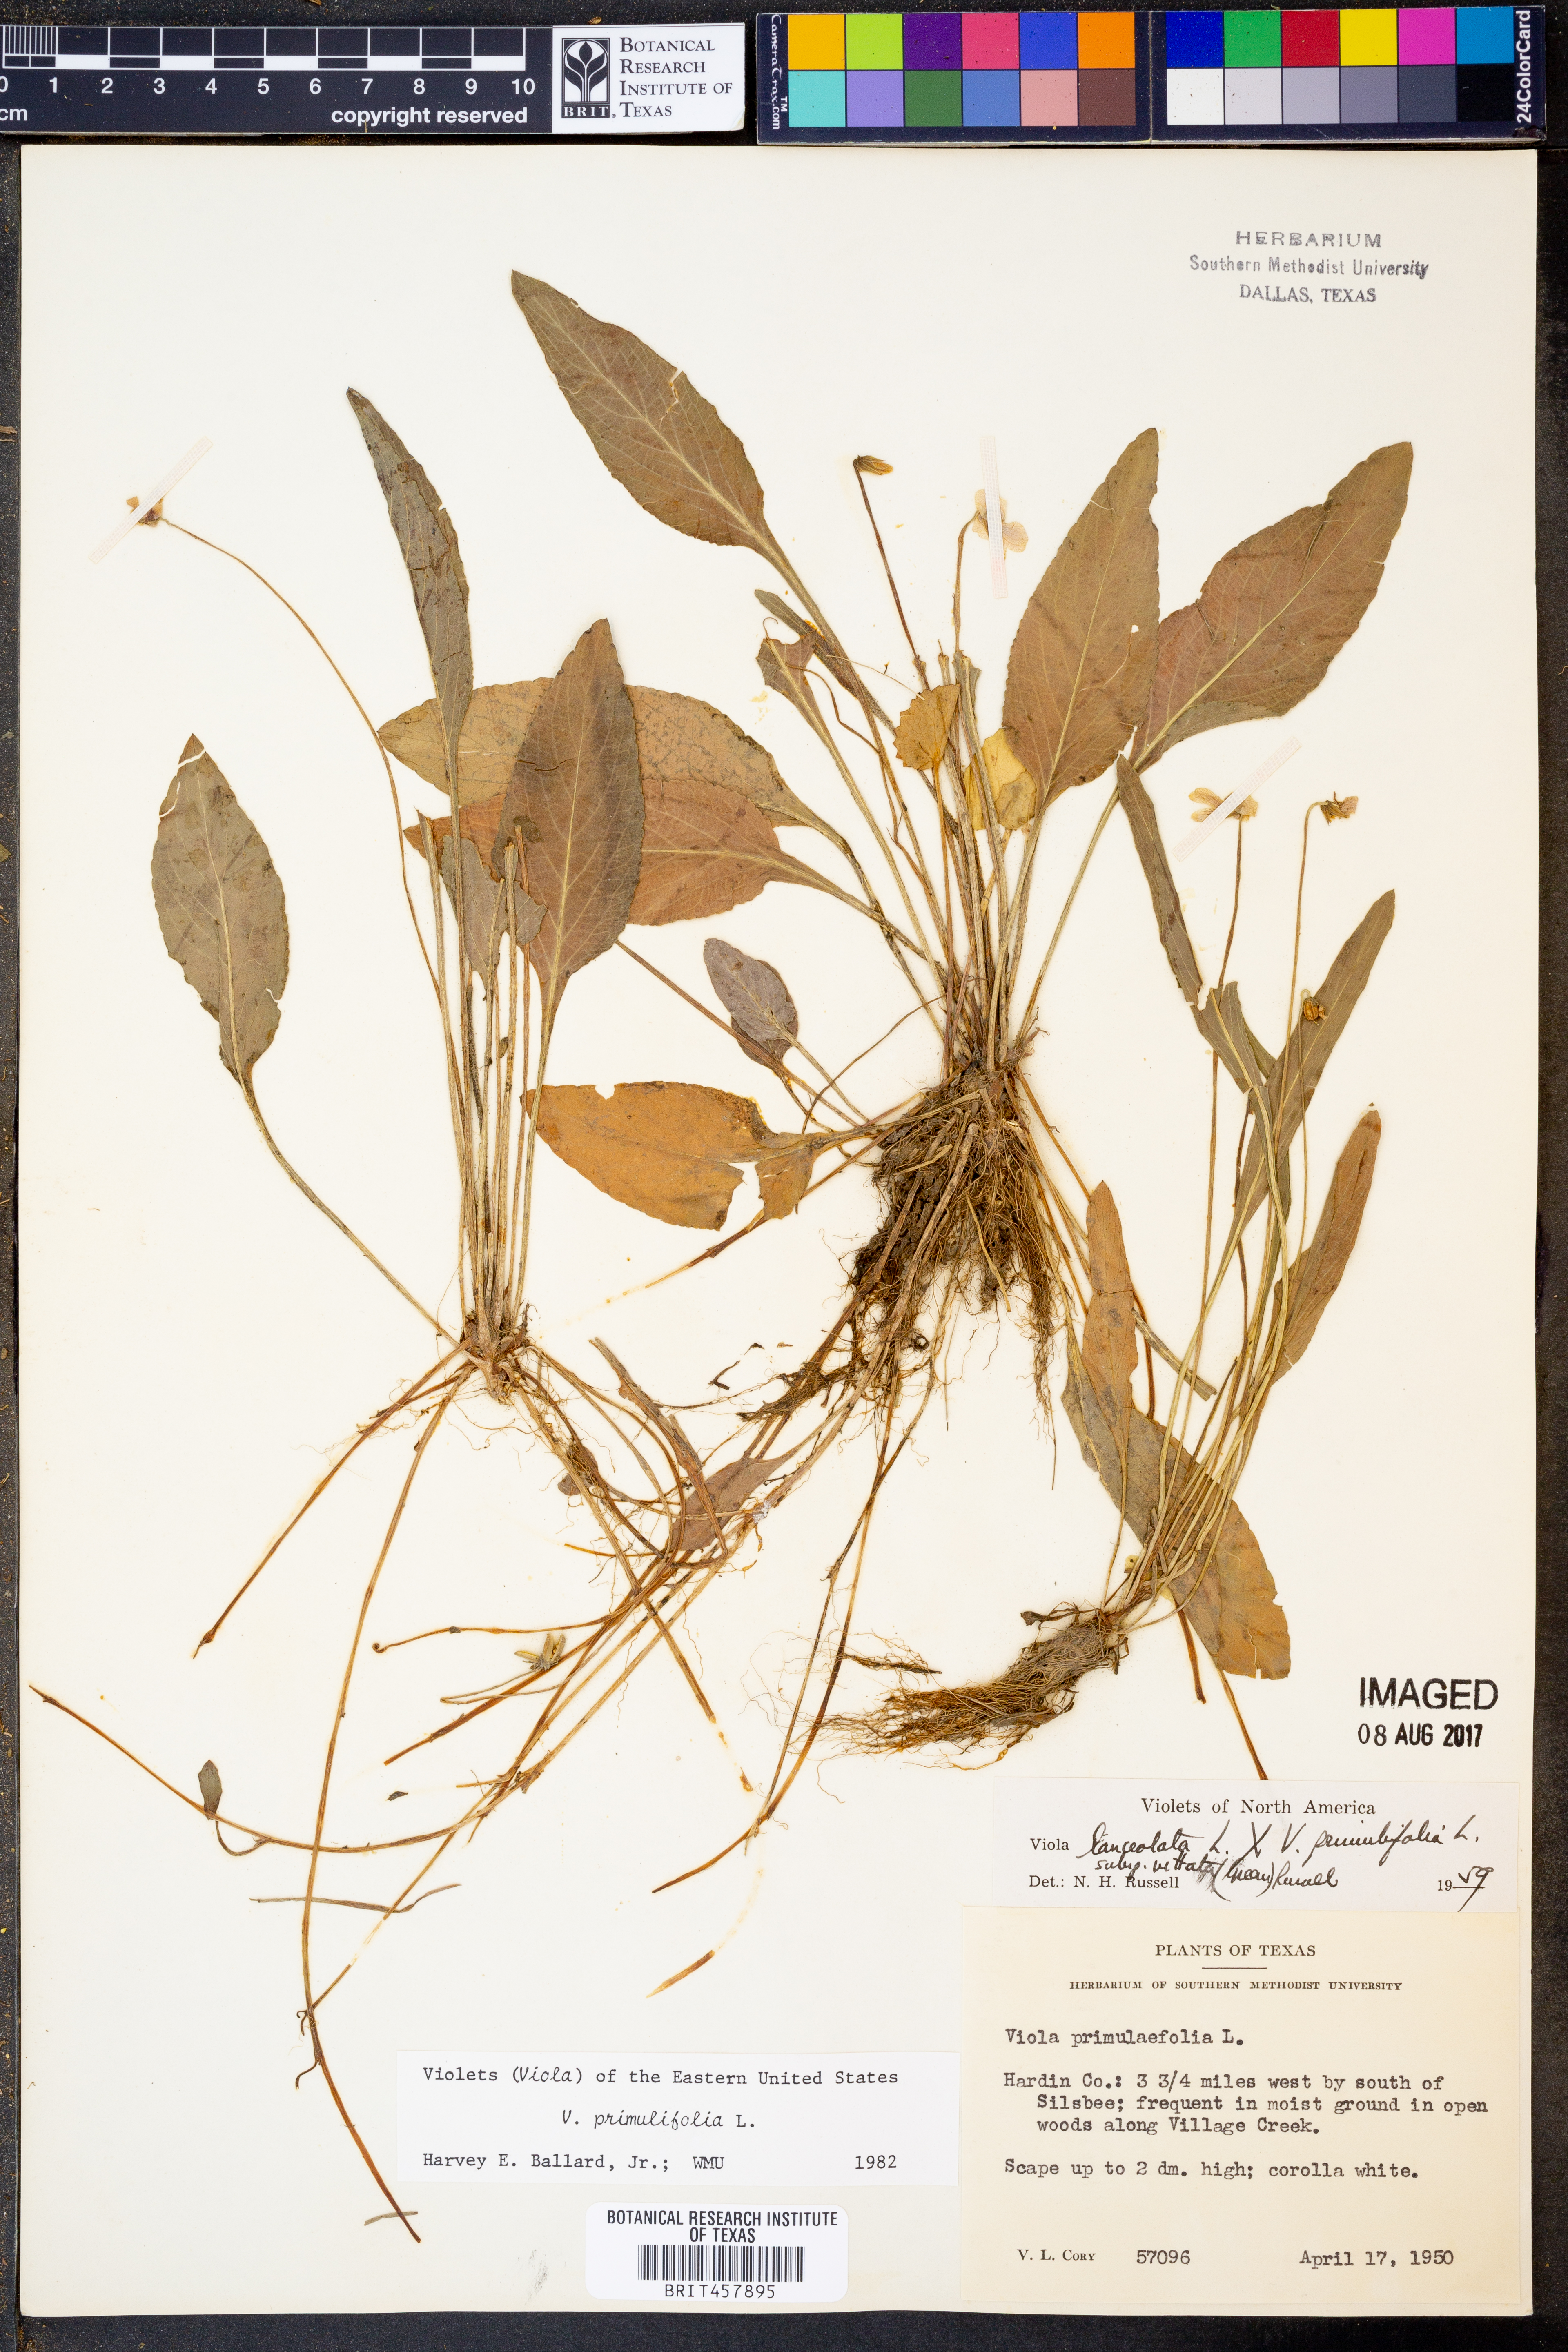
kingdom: Plantae
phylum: Tracheophyta
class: Magnoliopsida
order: Malpighiales
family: Violaceae
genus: Viola
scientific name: Viola primulifolia
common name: Primrose-leaf violet
